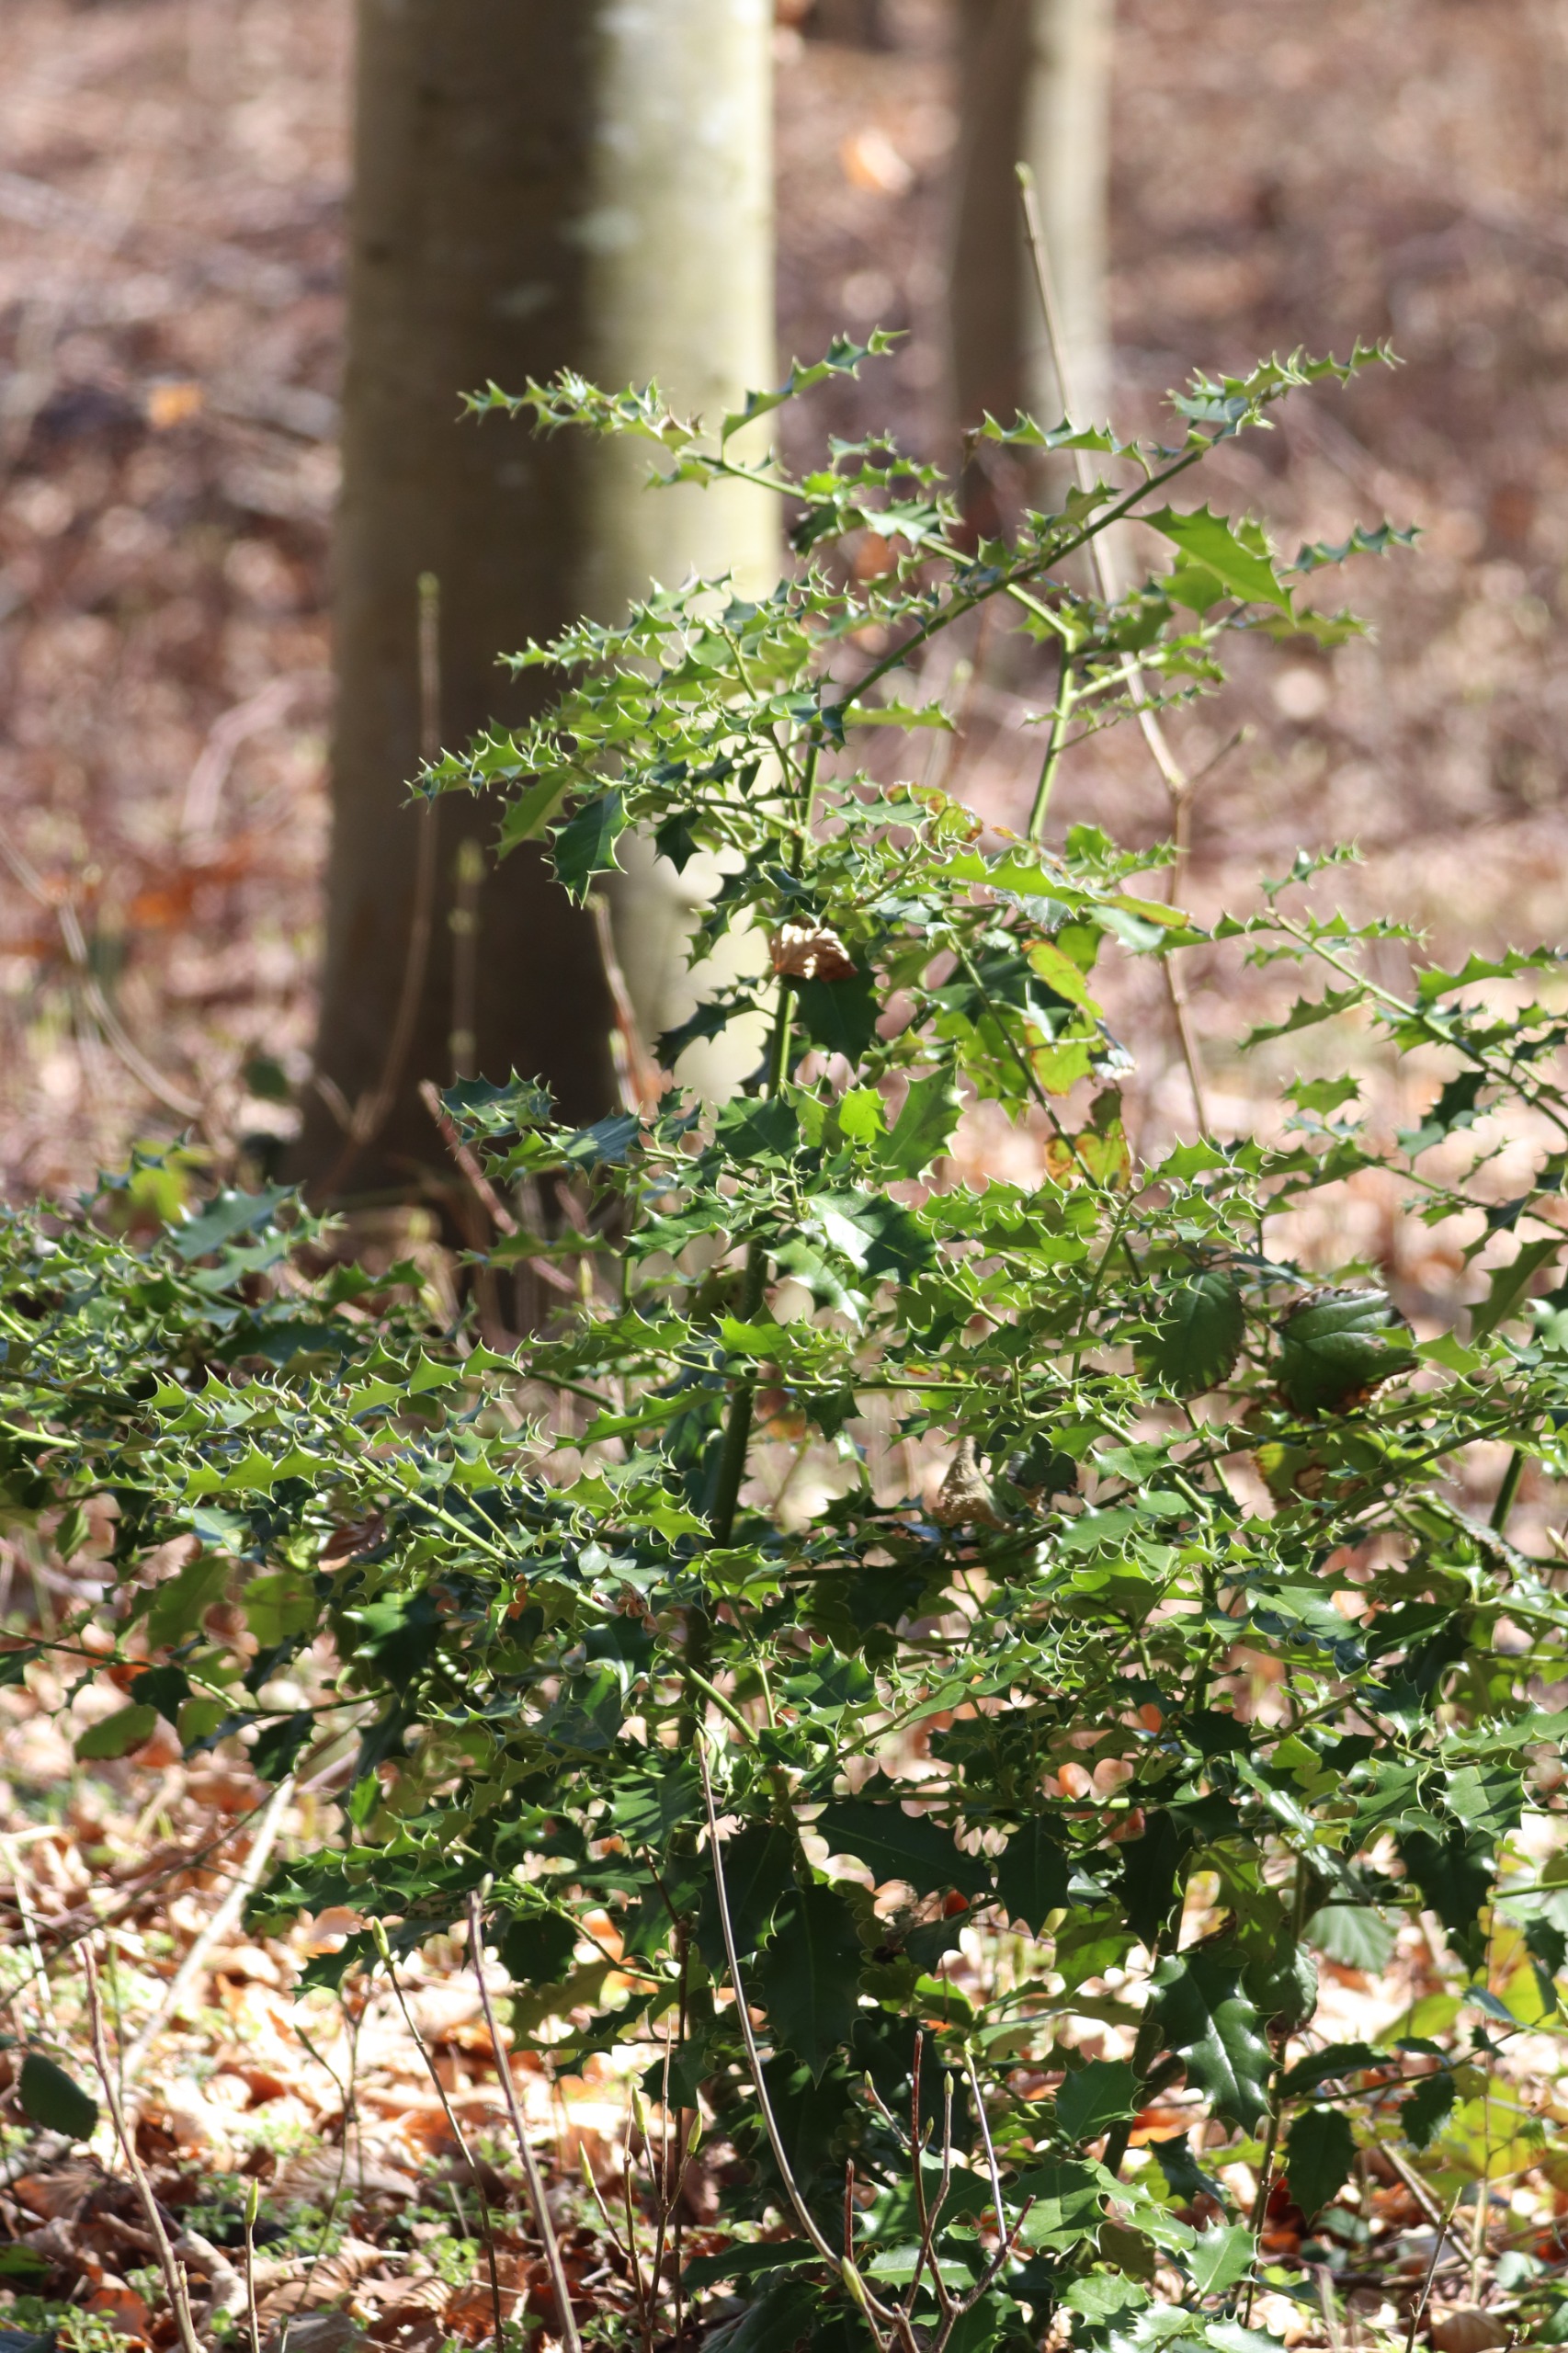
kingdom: Plantae
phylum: Tracheophyta
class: Magnoliopsida
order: Aquifoliales
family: Aquifoliaceae
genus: Ilex
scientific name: Ilex aquifolium
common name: Kristtorn
